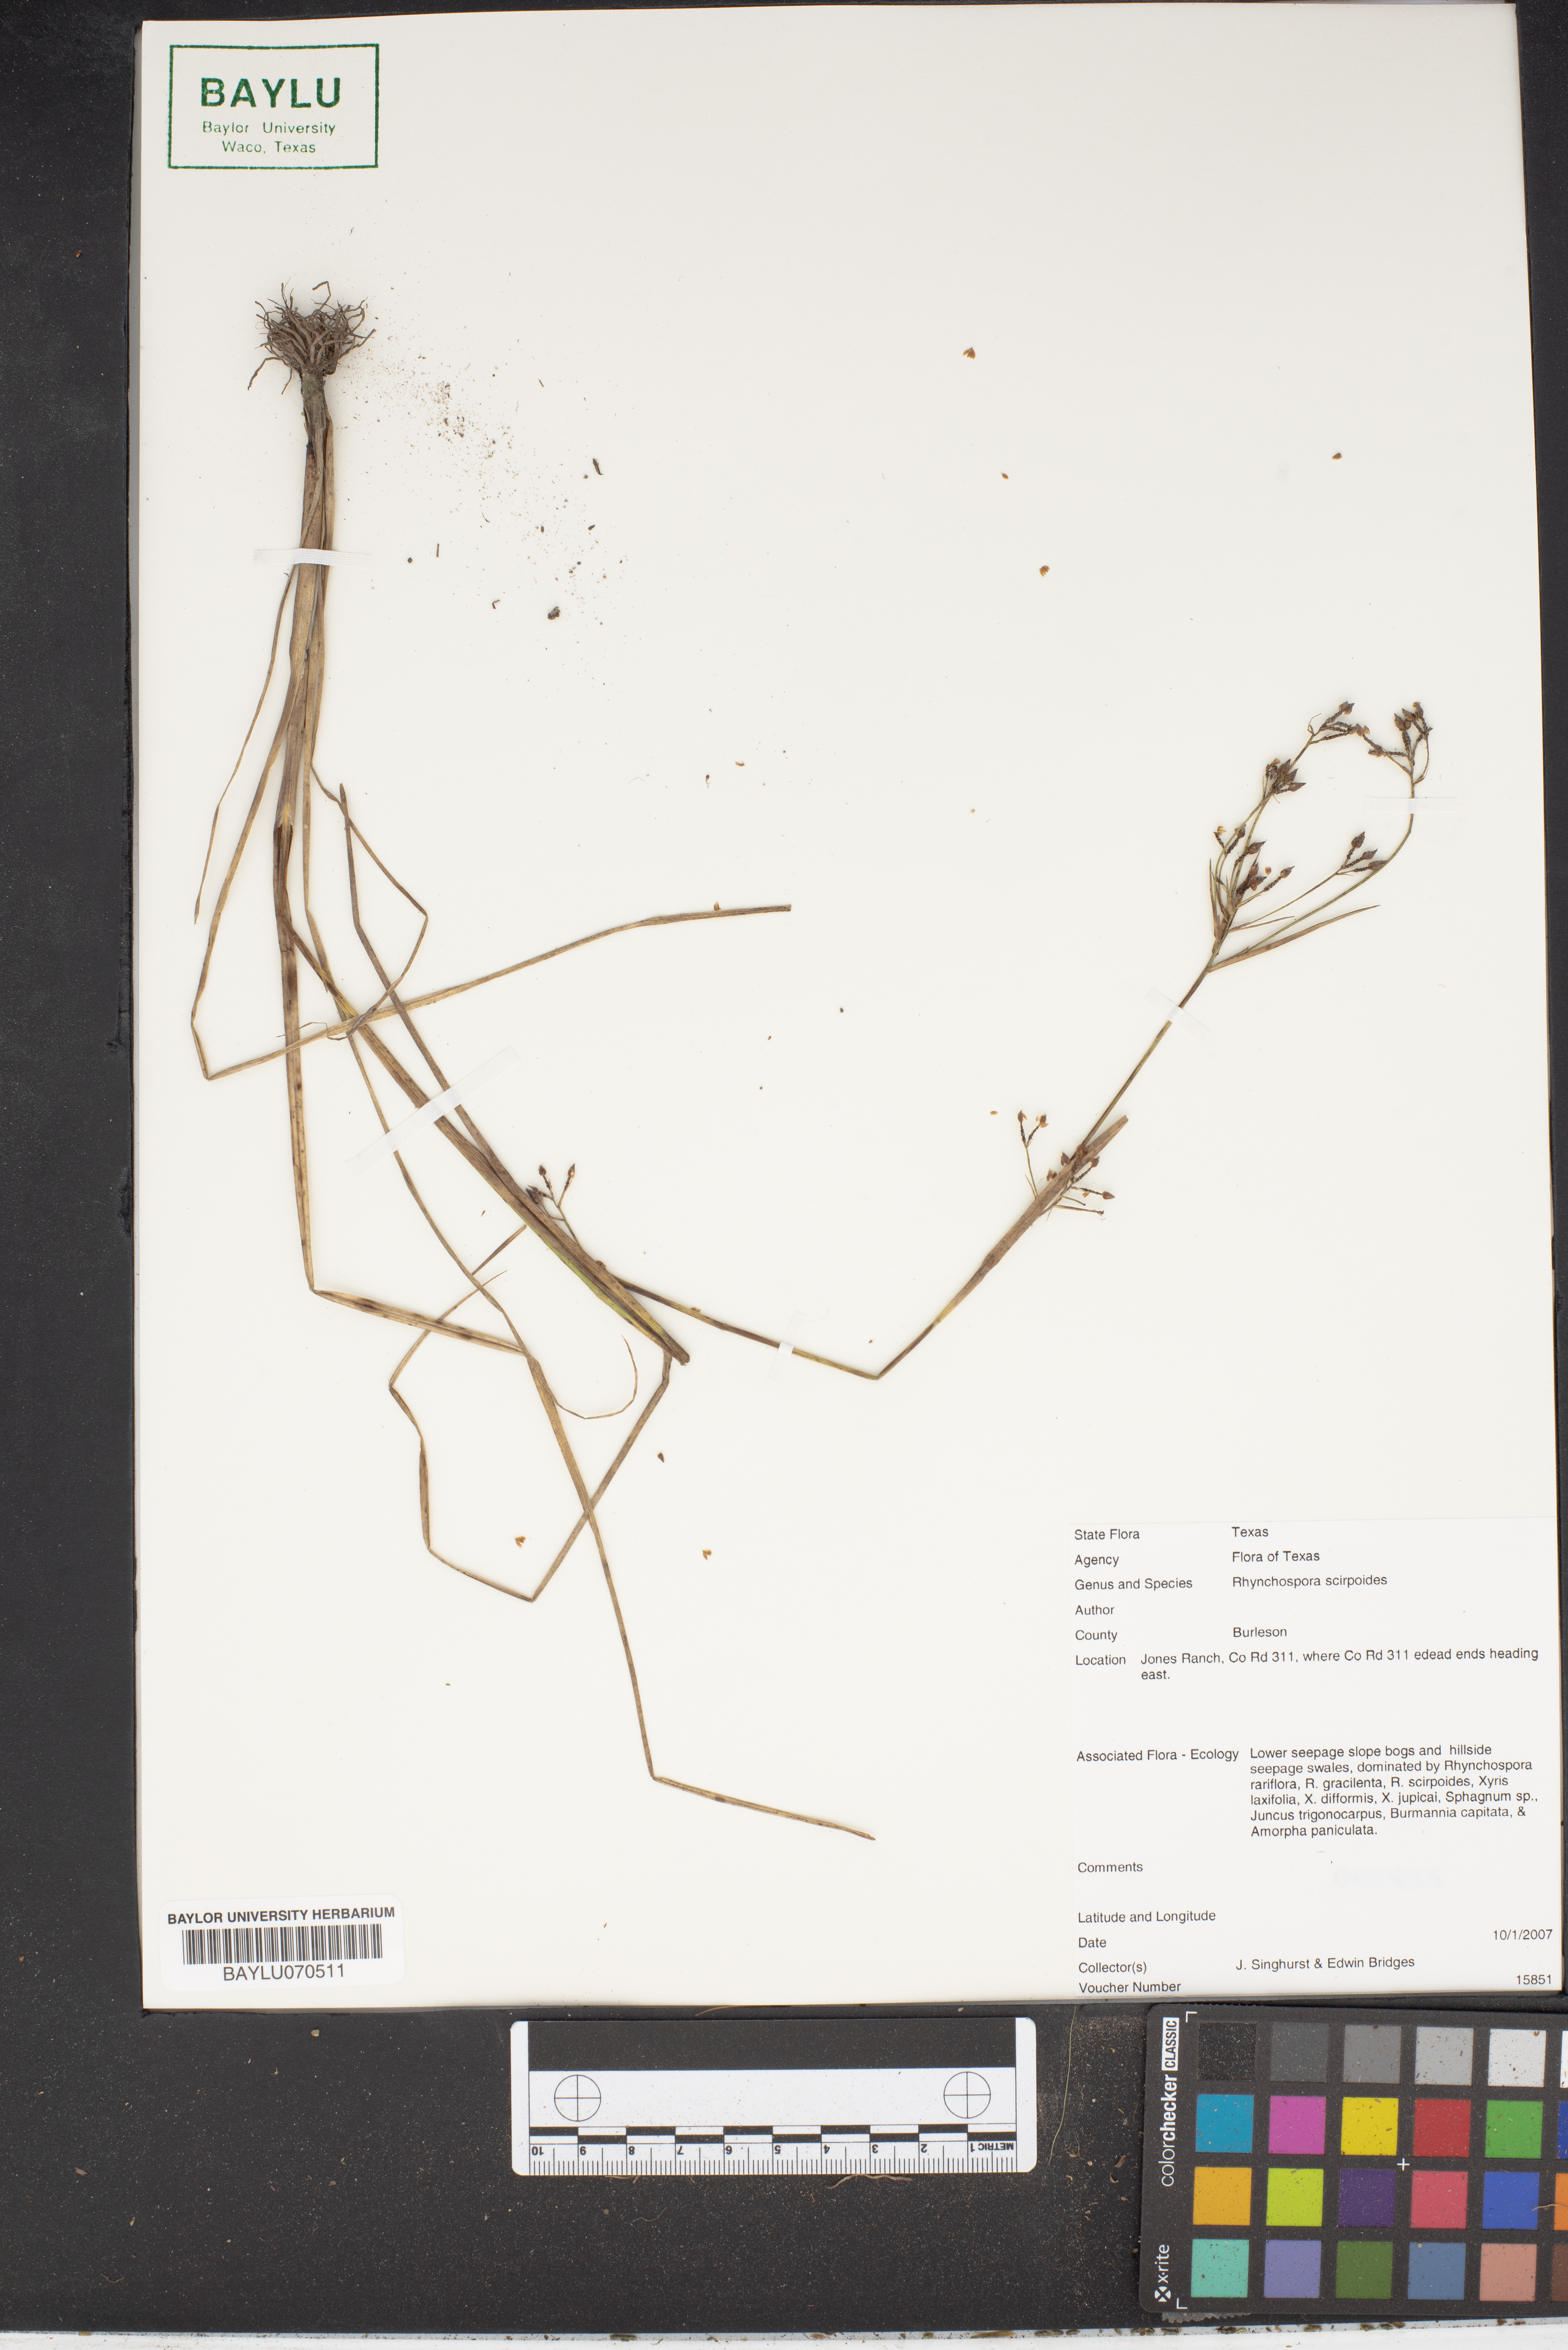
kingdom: Plantae
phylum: Tracheophyta
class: Liliopsida
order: Poales
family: Cyperaceae
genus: Rhynchospora
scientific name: Rhynchospora scirpoides
